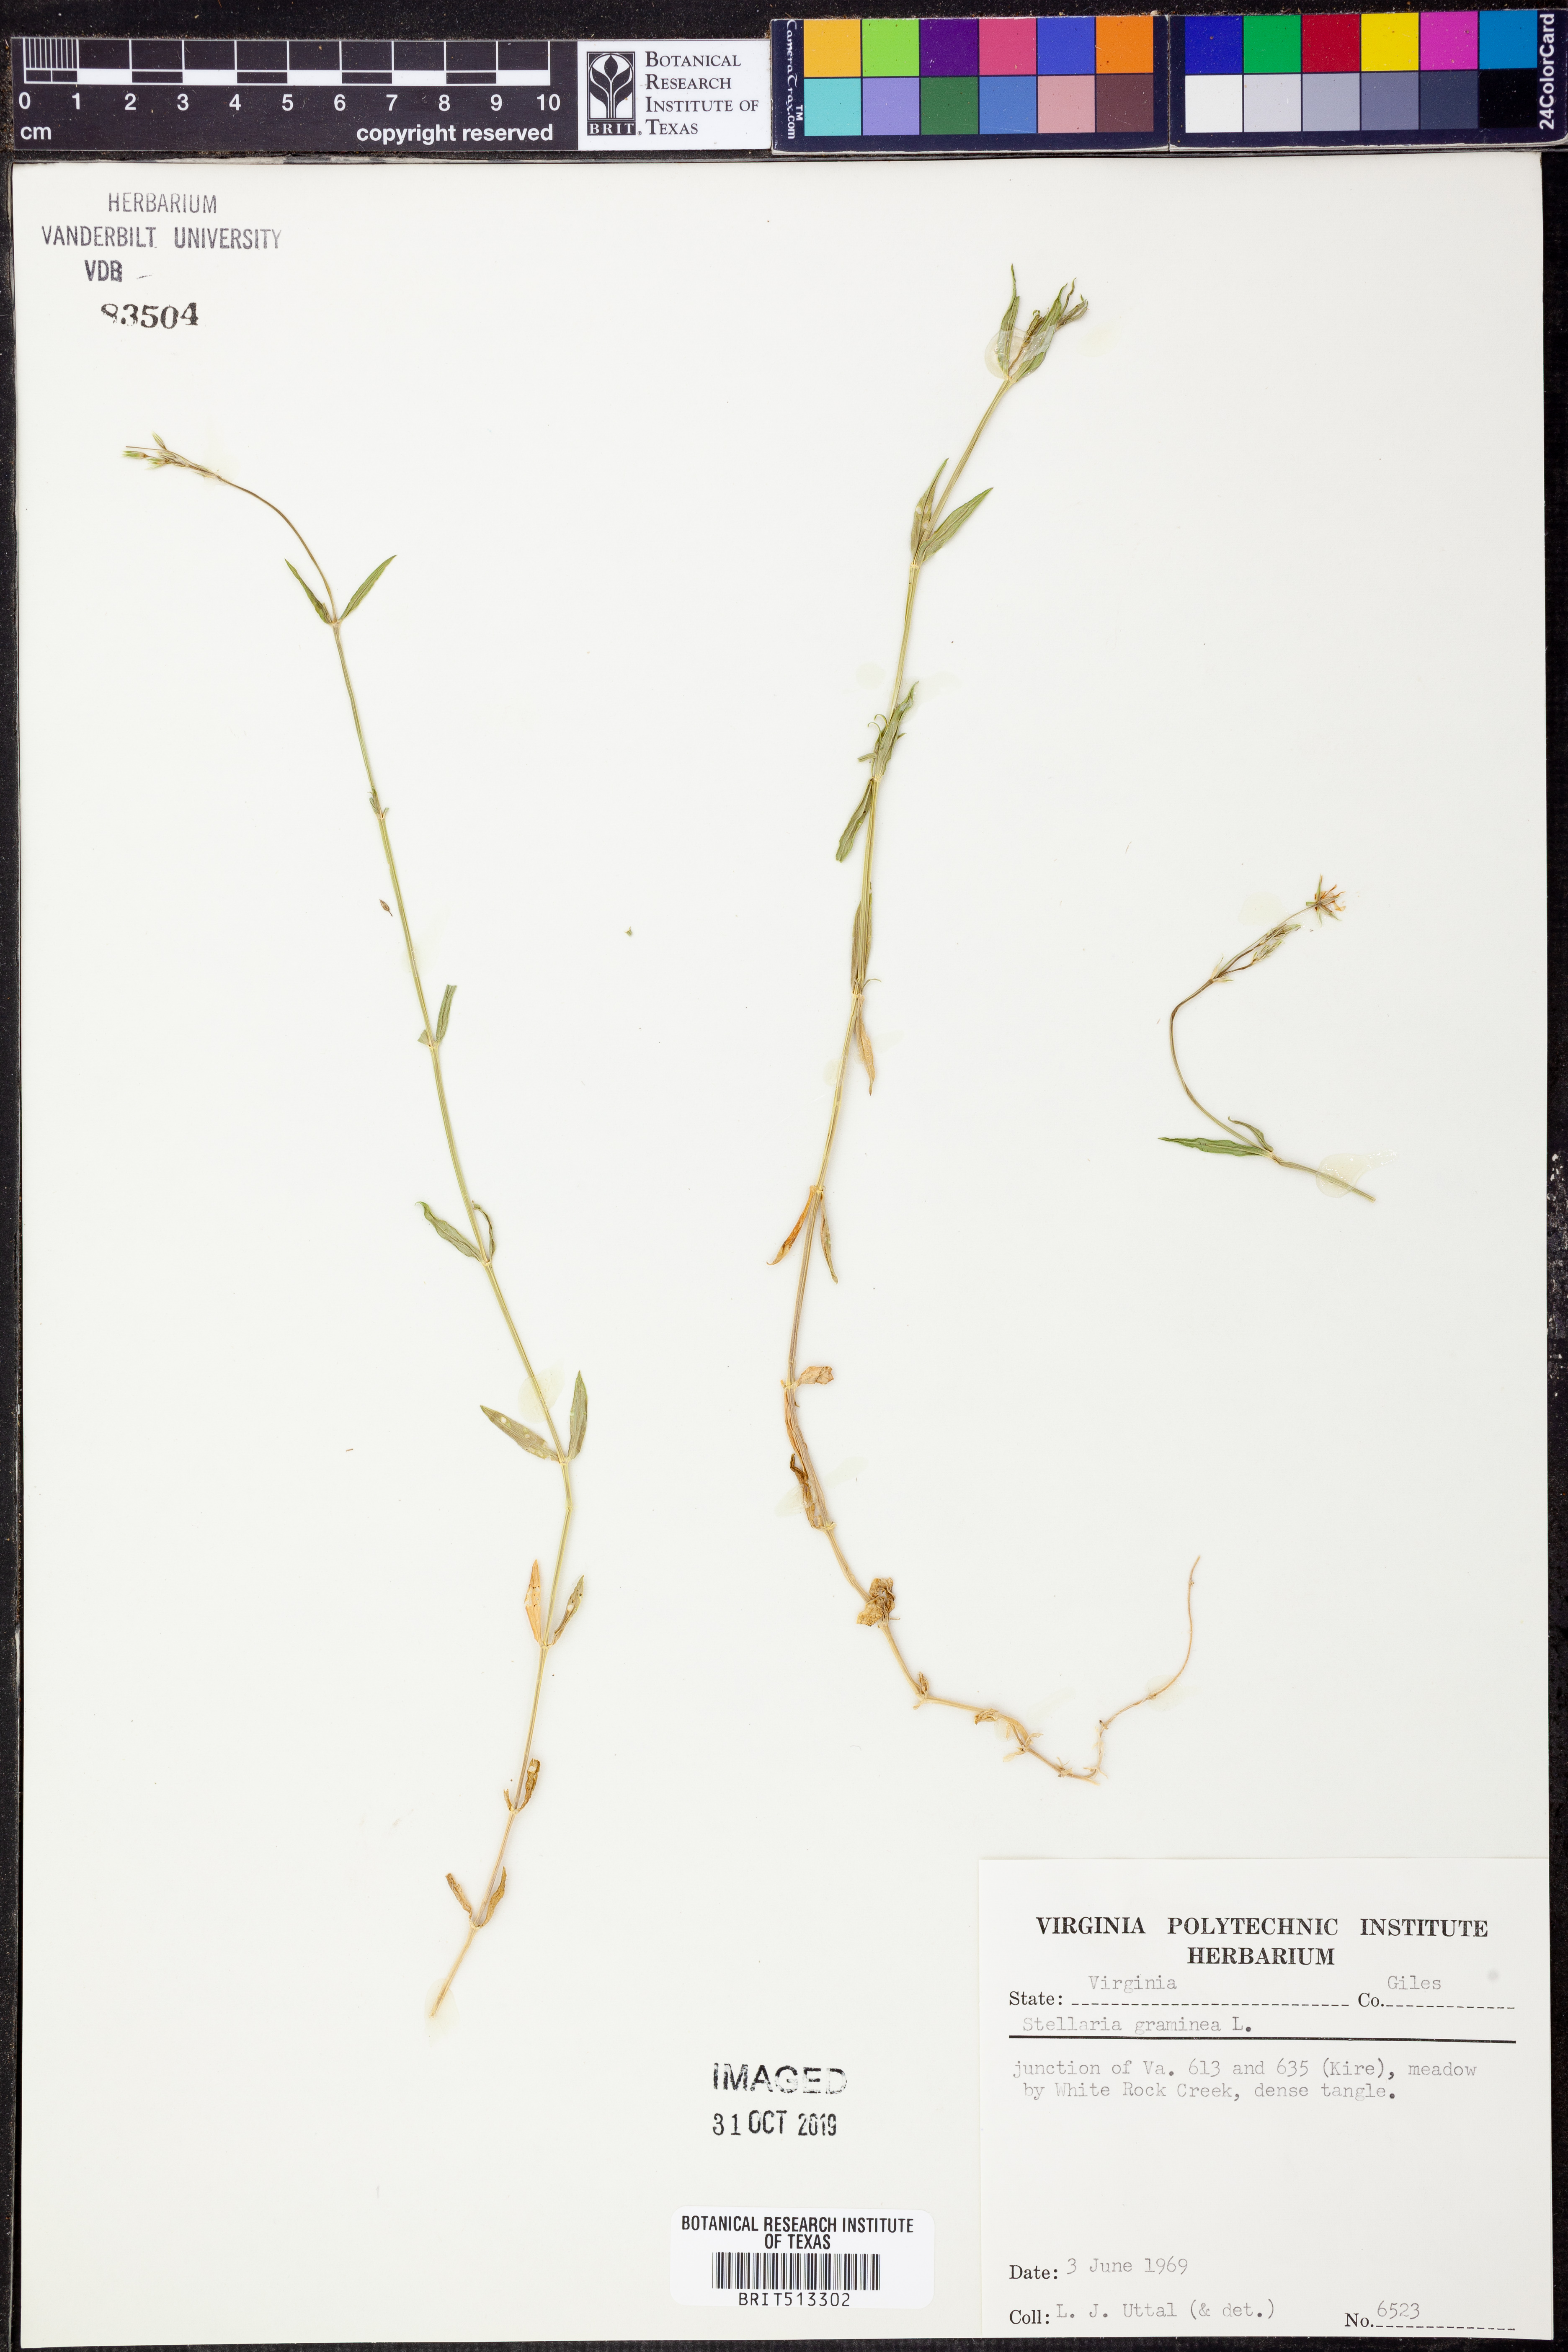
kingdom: Plantae
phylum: Tracheophyta
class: Magnoliopsida
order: Caryophyllales
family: Caryophyllaceae
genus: Stellaria
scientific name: Stellaria graminea
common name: Grass-like starwort
